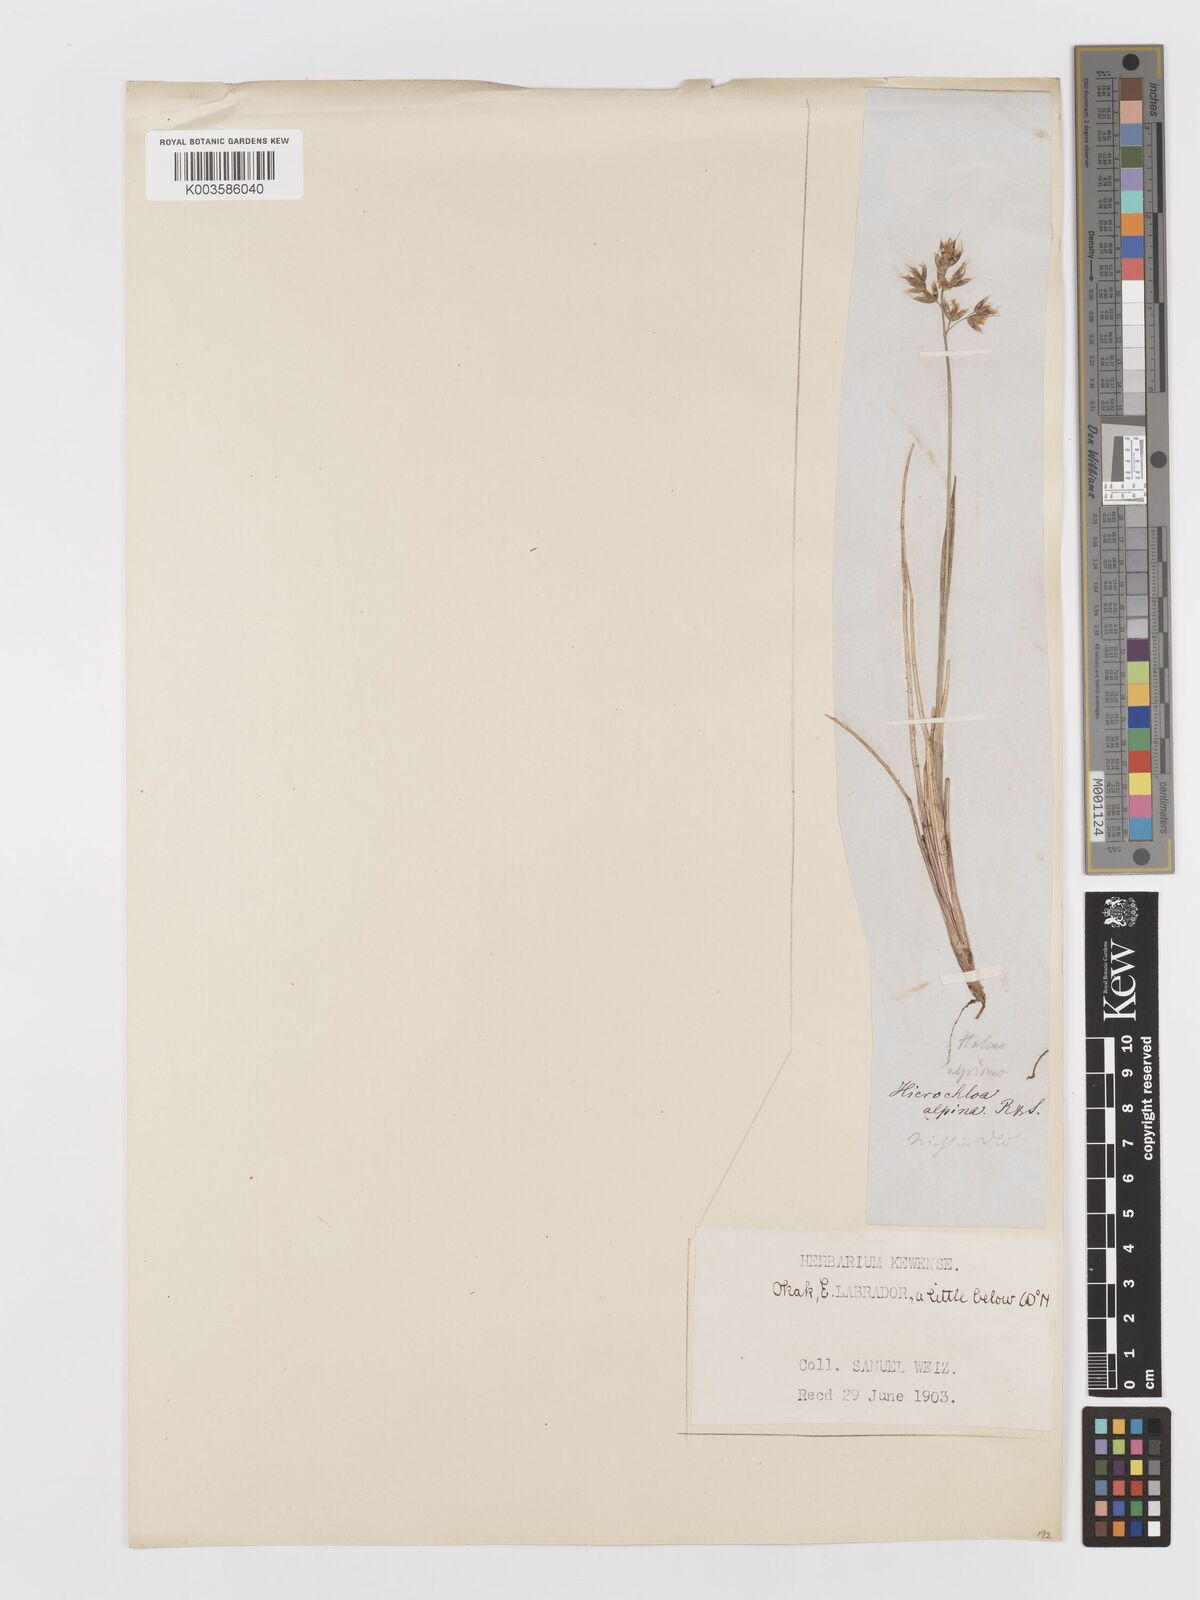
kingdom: Plantae
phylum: Tracheophyta
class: Liliopsida
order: Poales
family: Poaceae
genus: Anthoxanthum
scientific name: Anthoxanthum monticola
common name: Alpine sweetgrass
